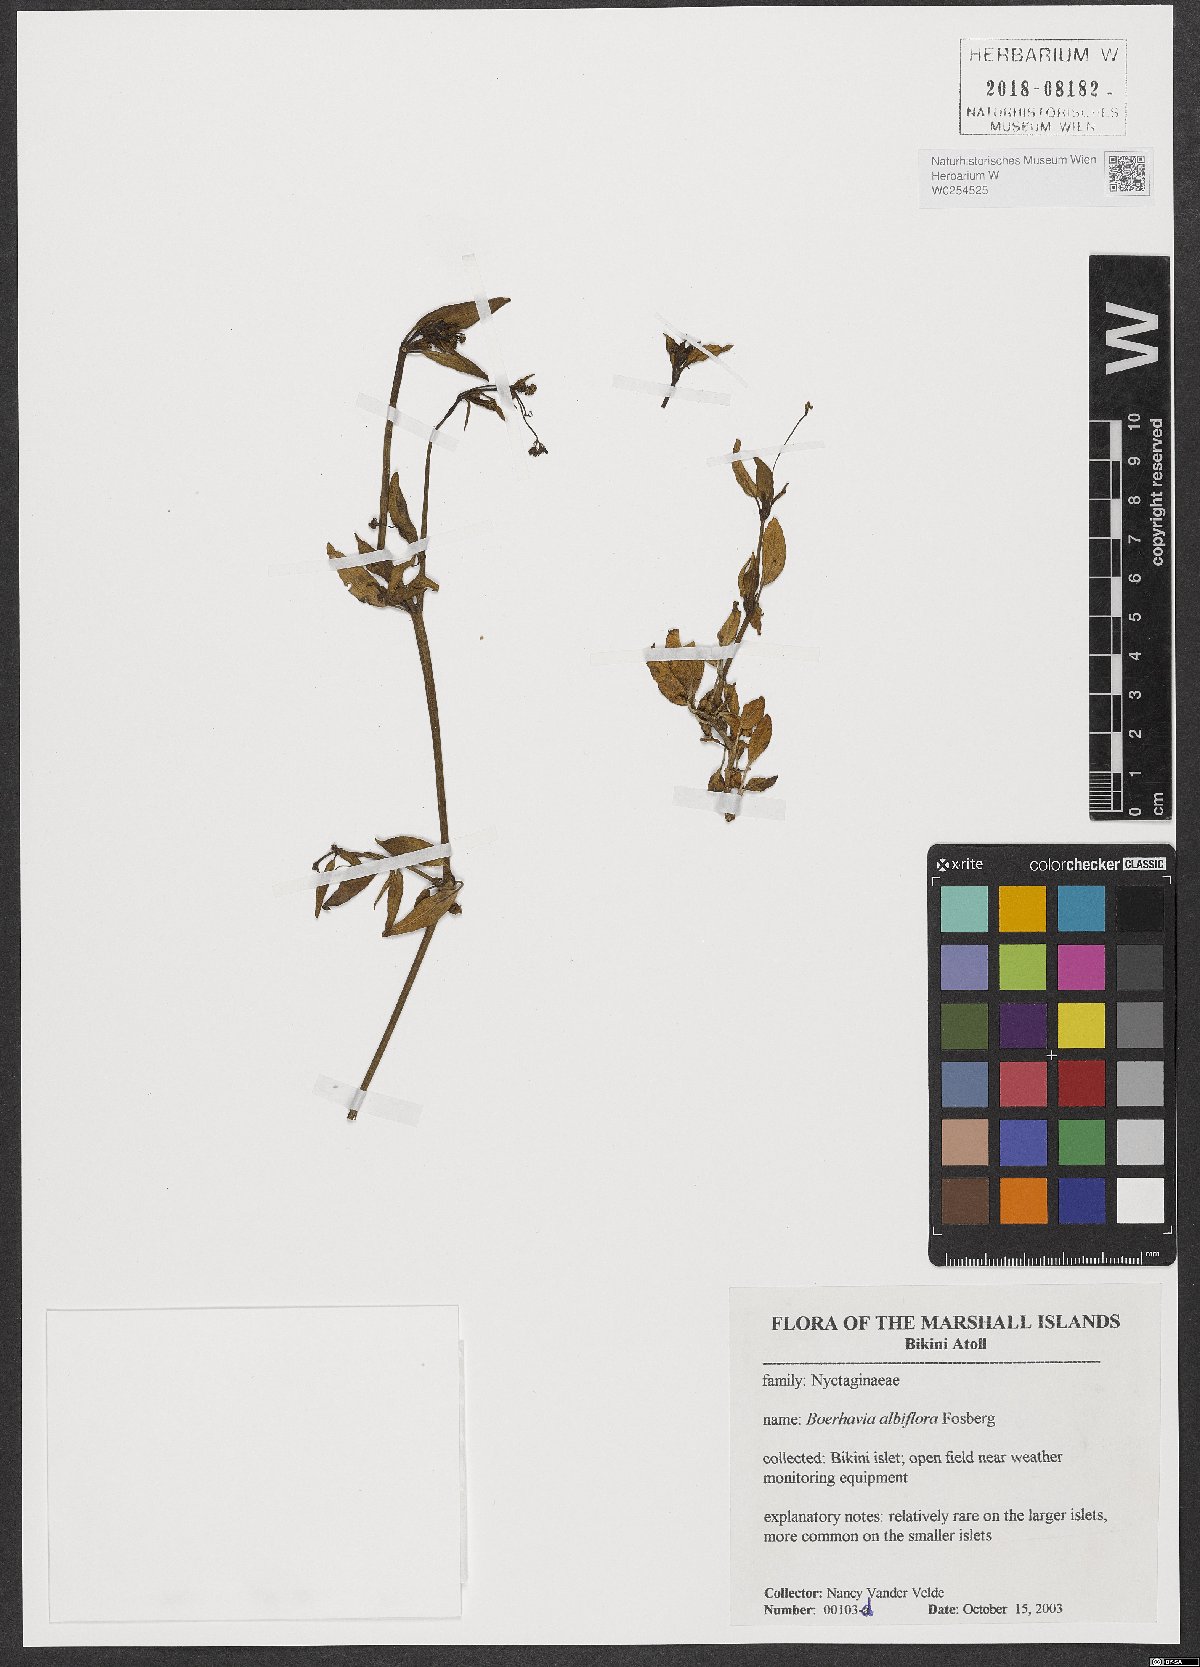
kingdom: Plantae
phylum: Tracheophyta
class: Magnoliopsida
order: Caryophyllales
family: Nyctaginaceae
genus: Boerhavia
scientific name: Boerhavia albiflora
